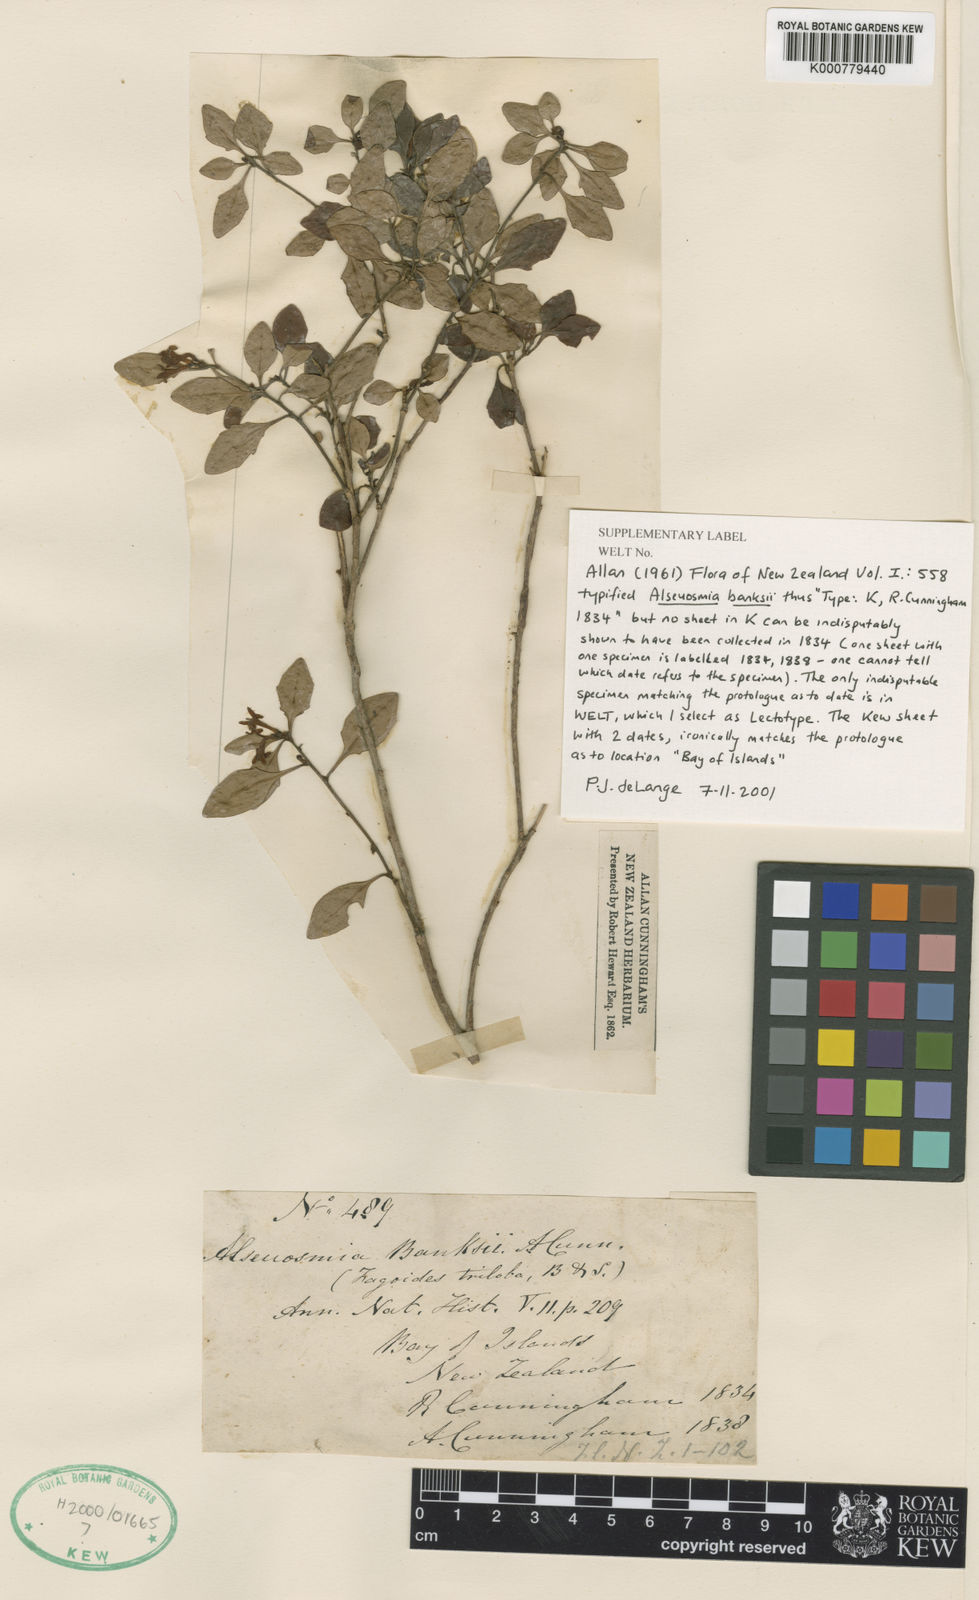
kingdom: Plantae
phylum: Tracheophyta
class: Magnoliopsida
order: Asterales
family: Alseuosmiaceae
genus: Alseuosmia
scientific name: Alseuosmia banksii
